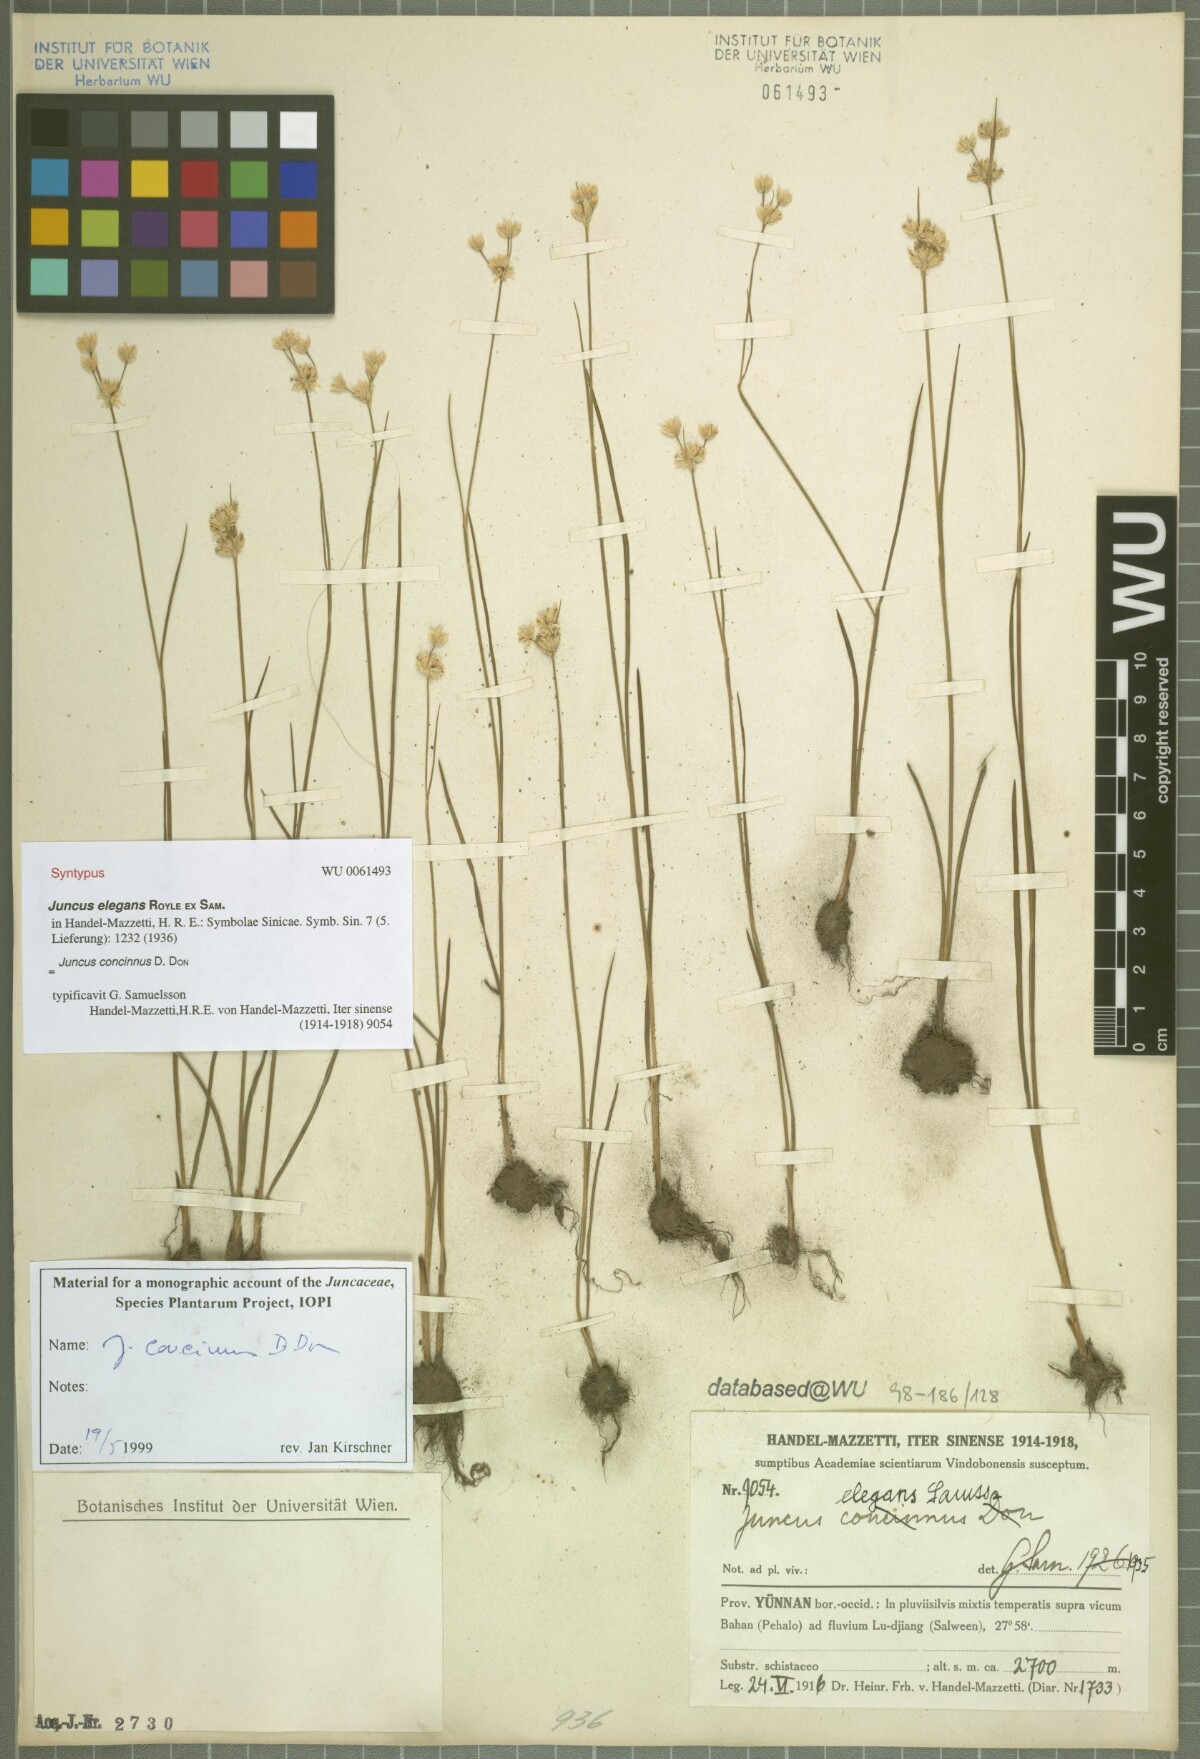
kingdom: Plantae
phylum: Tracheophyta
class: Liliopsida
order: Poales
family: Juncaceae
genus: Juncus
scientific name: Juncus concinnus
